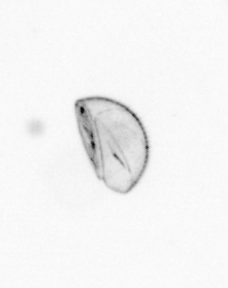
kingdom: Chromista
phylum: Ochrophyta
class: Bacillariophyceae
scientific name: Bacillariophyceae
